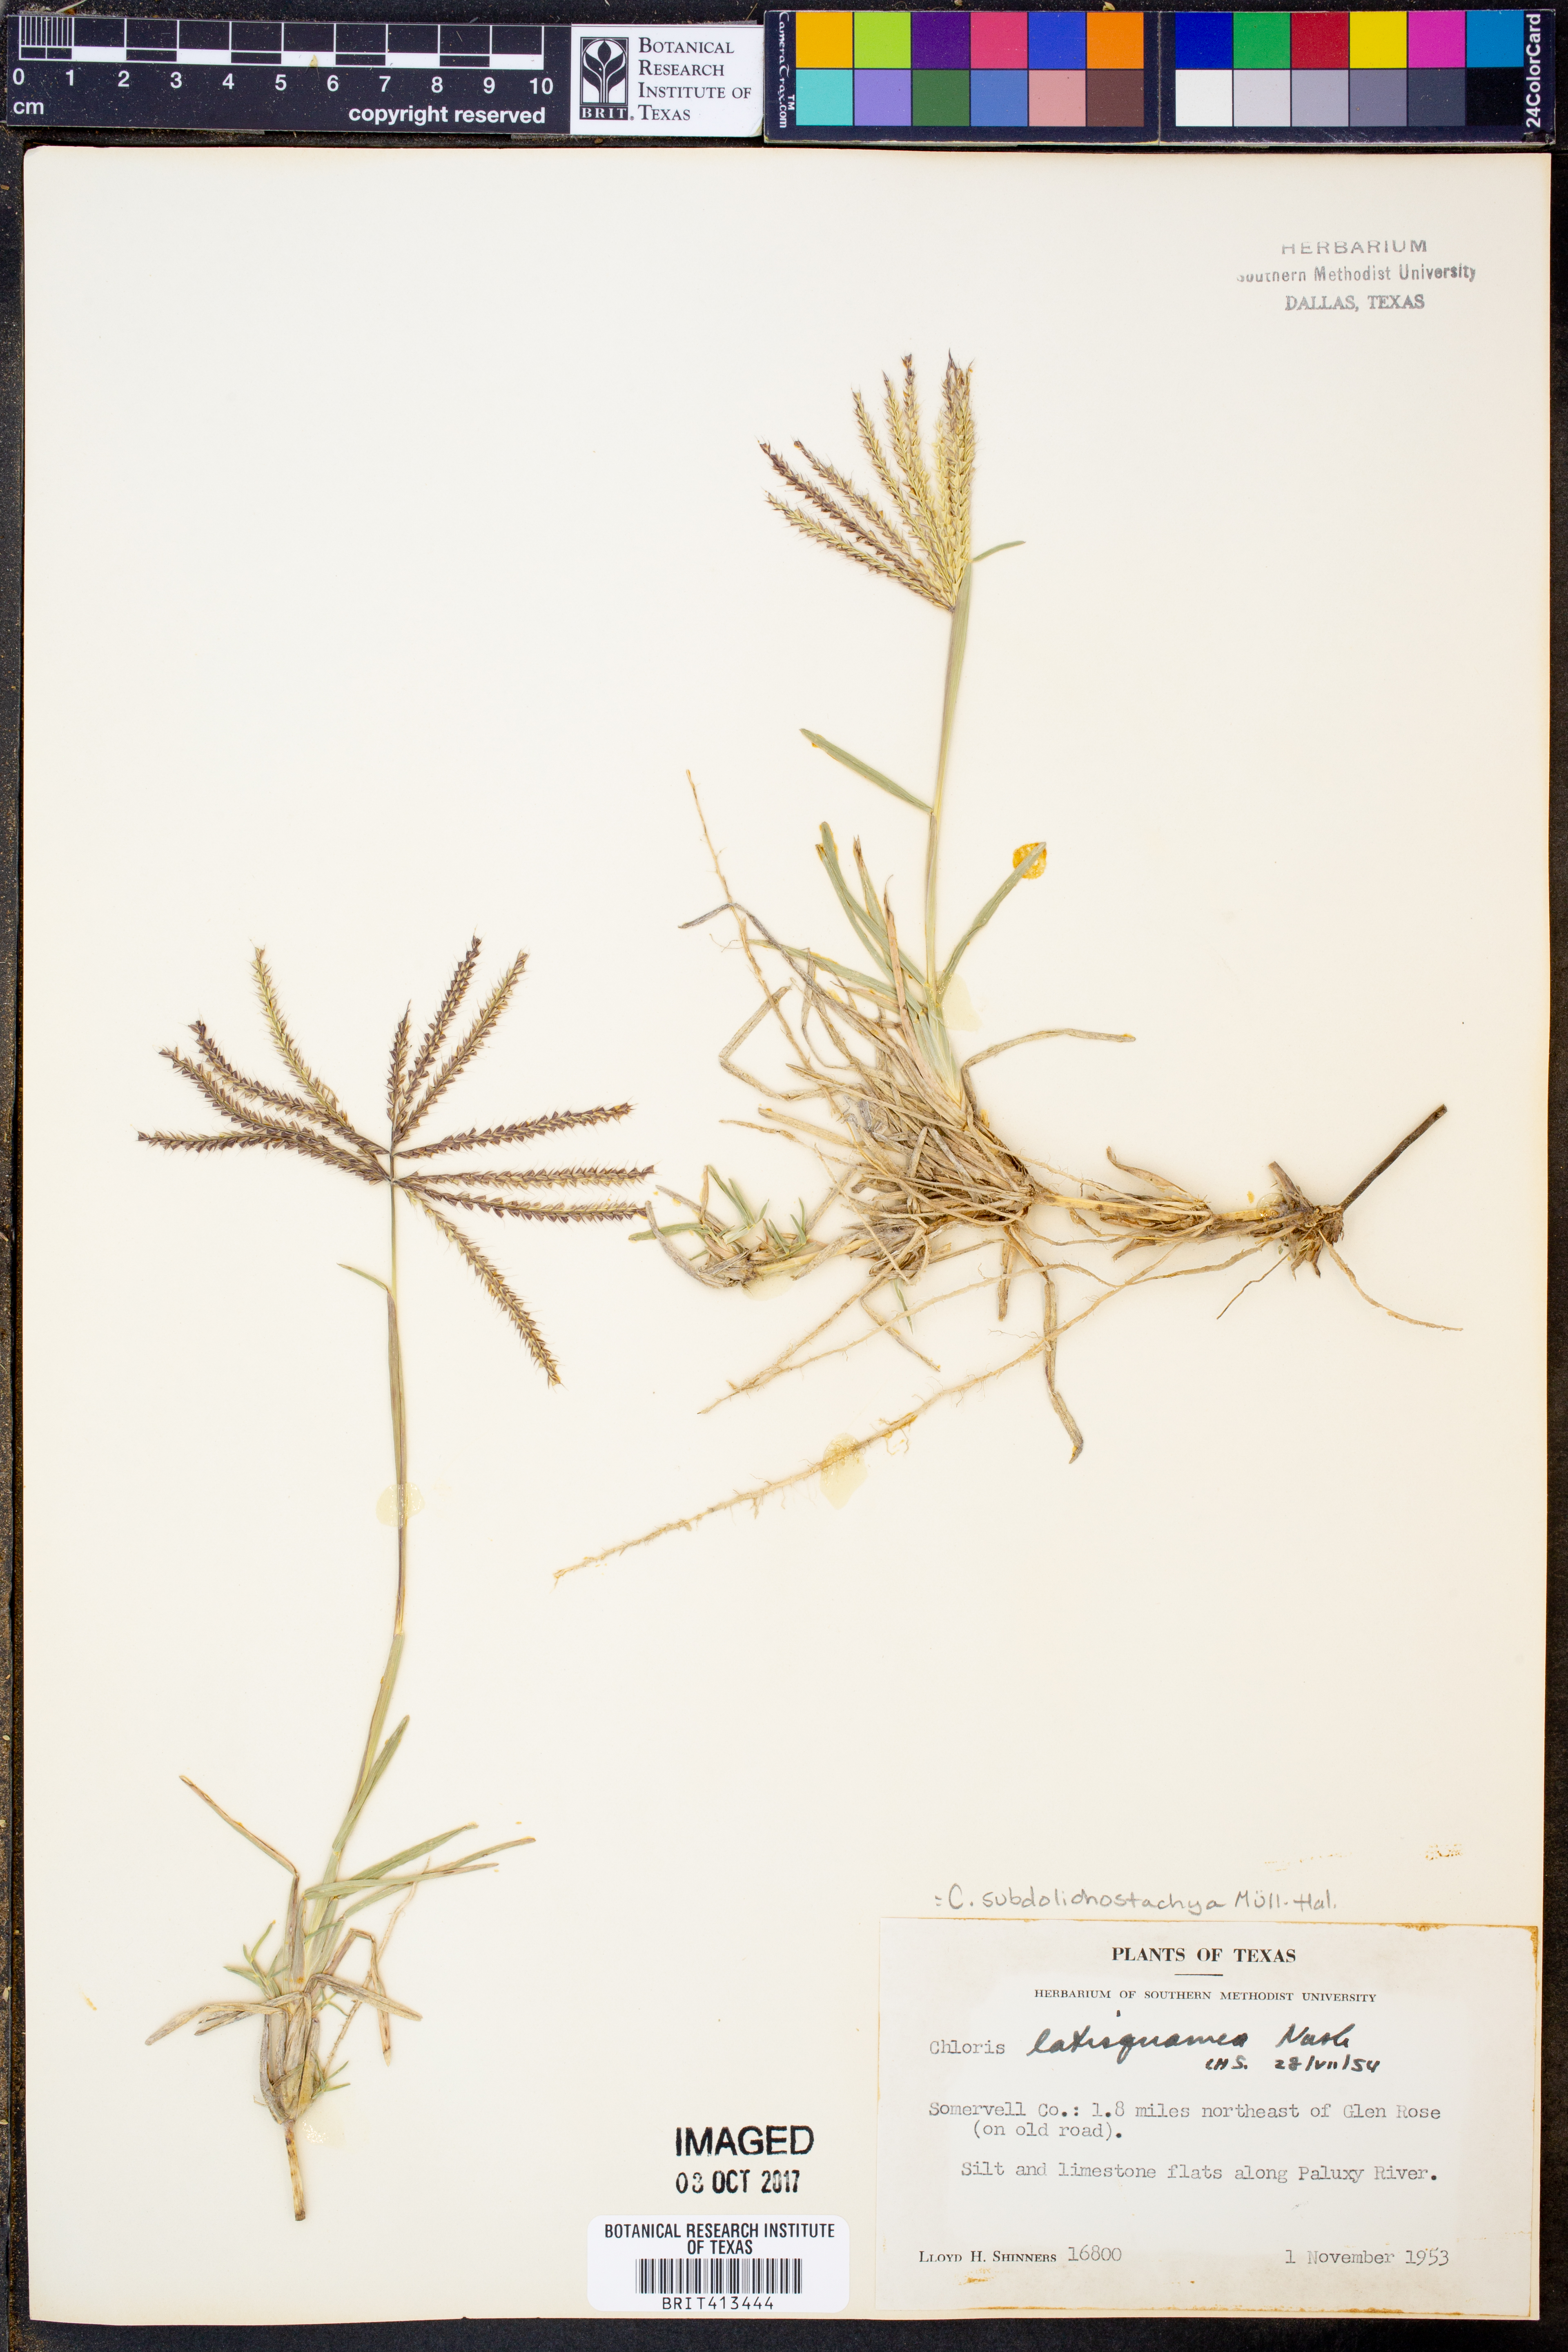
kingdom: Plantae
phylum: Tracheophyta
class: Liliopsida
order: Poales
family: Poaceae
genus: Chloris
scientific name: Chloris subdolichostachya
